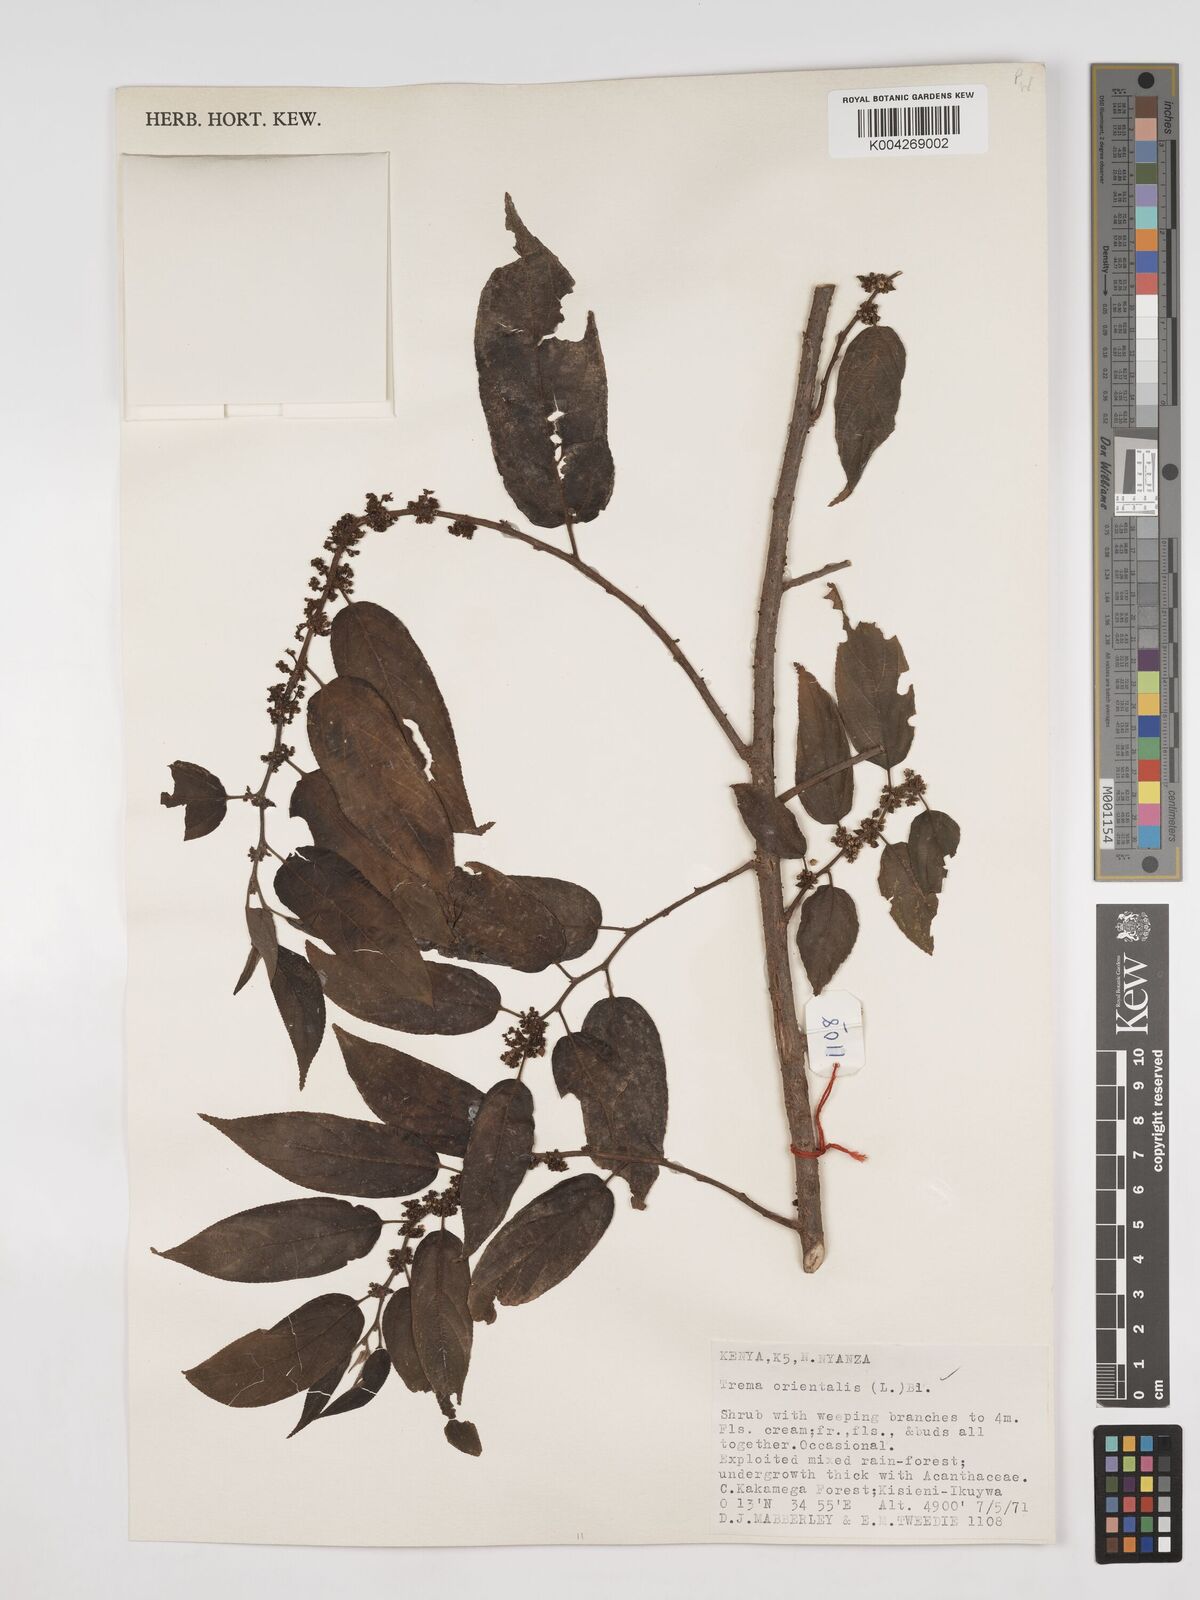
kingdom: Plantae
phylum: Tracheophyta
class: Magnoliopsida
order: Rosales
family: Cannabaceae
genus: Trema
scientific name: Trema orientale
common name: Indian charcoal tree
